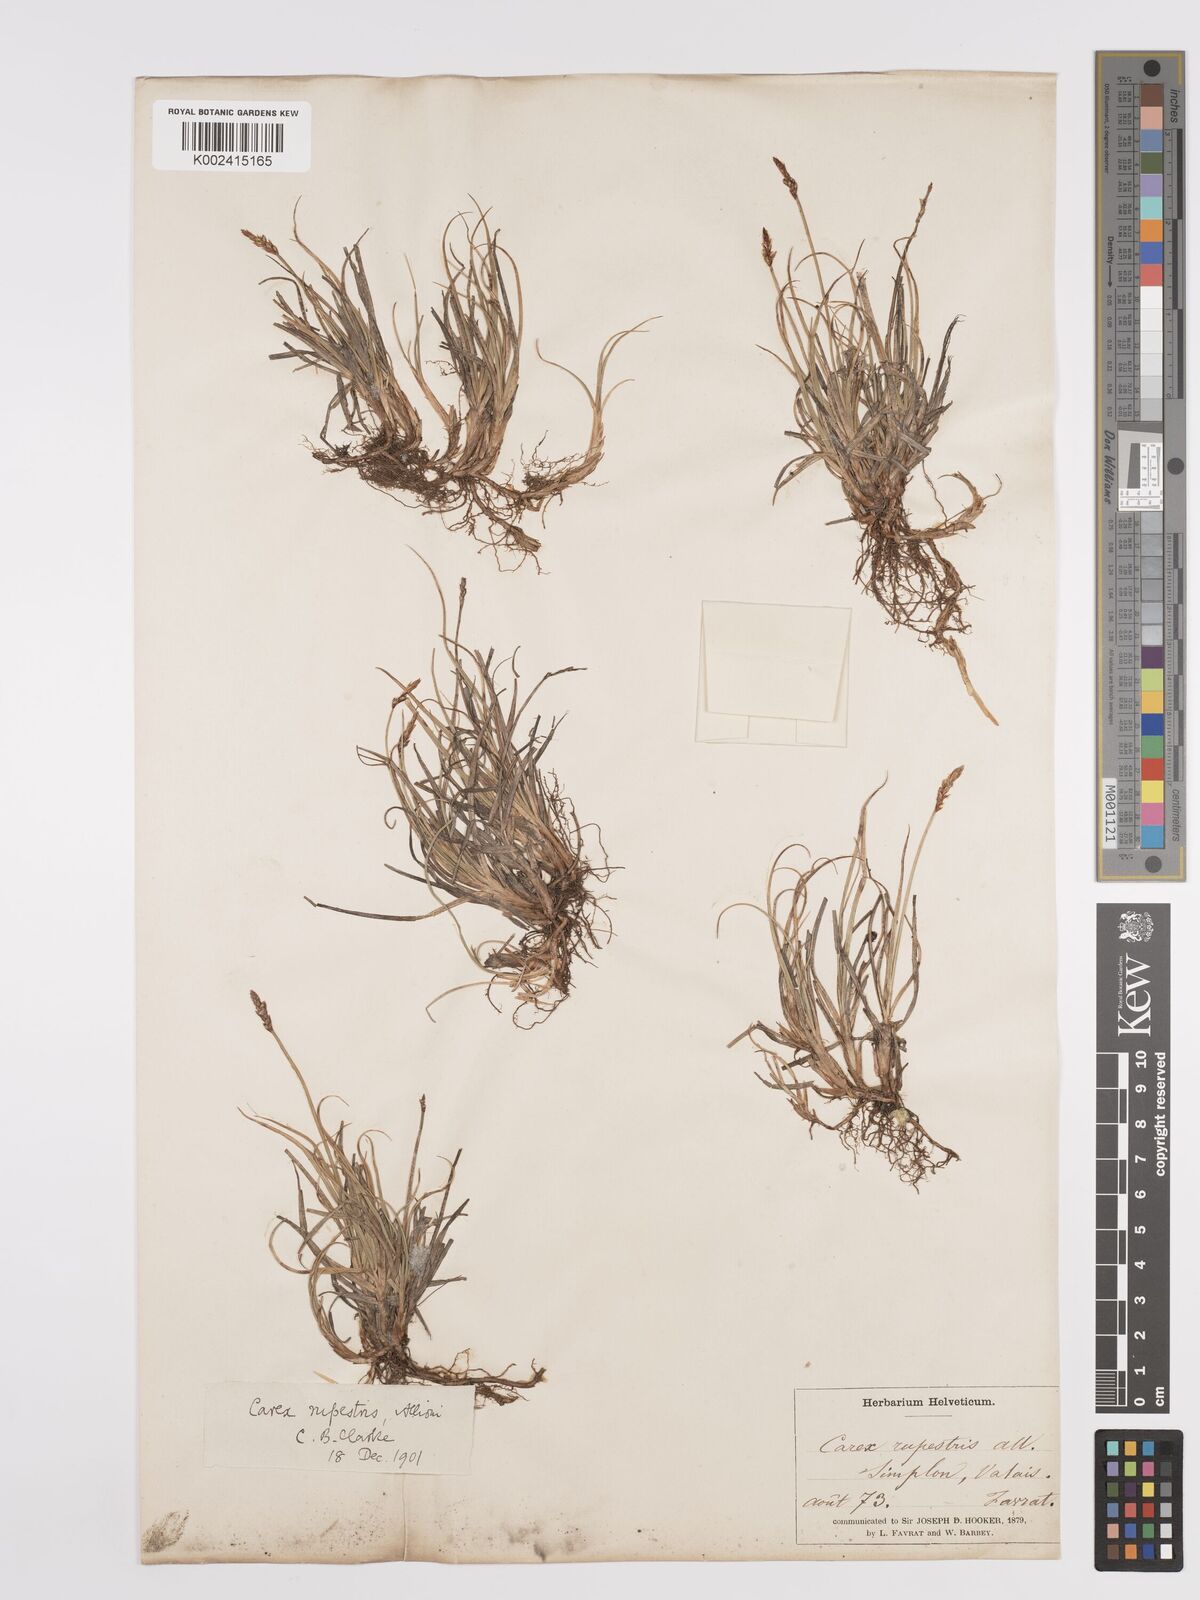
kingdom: Plantae
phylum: Tracheophyta
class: Liliopsida
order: Poales
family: Cyperaceae
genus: Carex
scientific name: Carex rupestris
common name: Rock sedge
